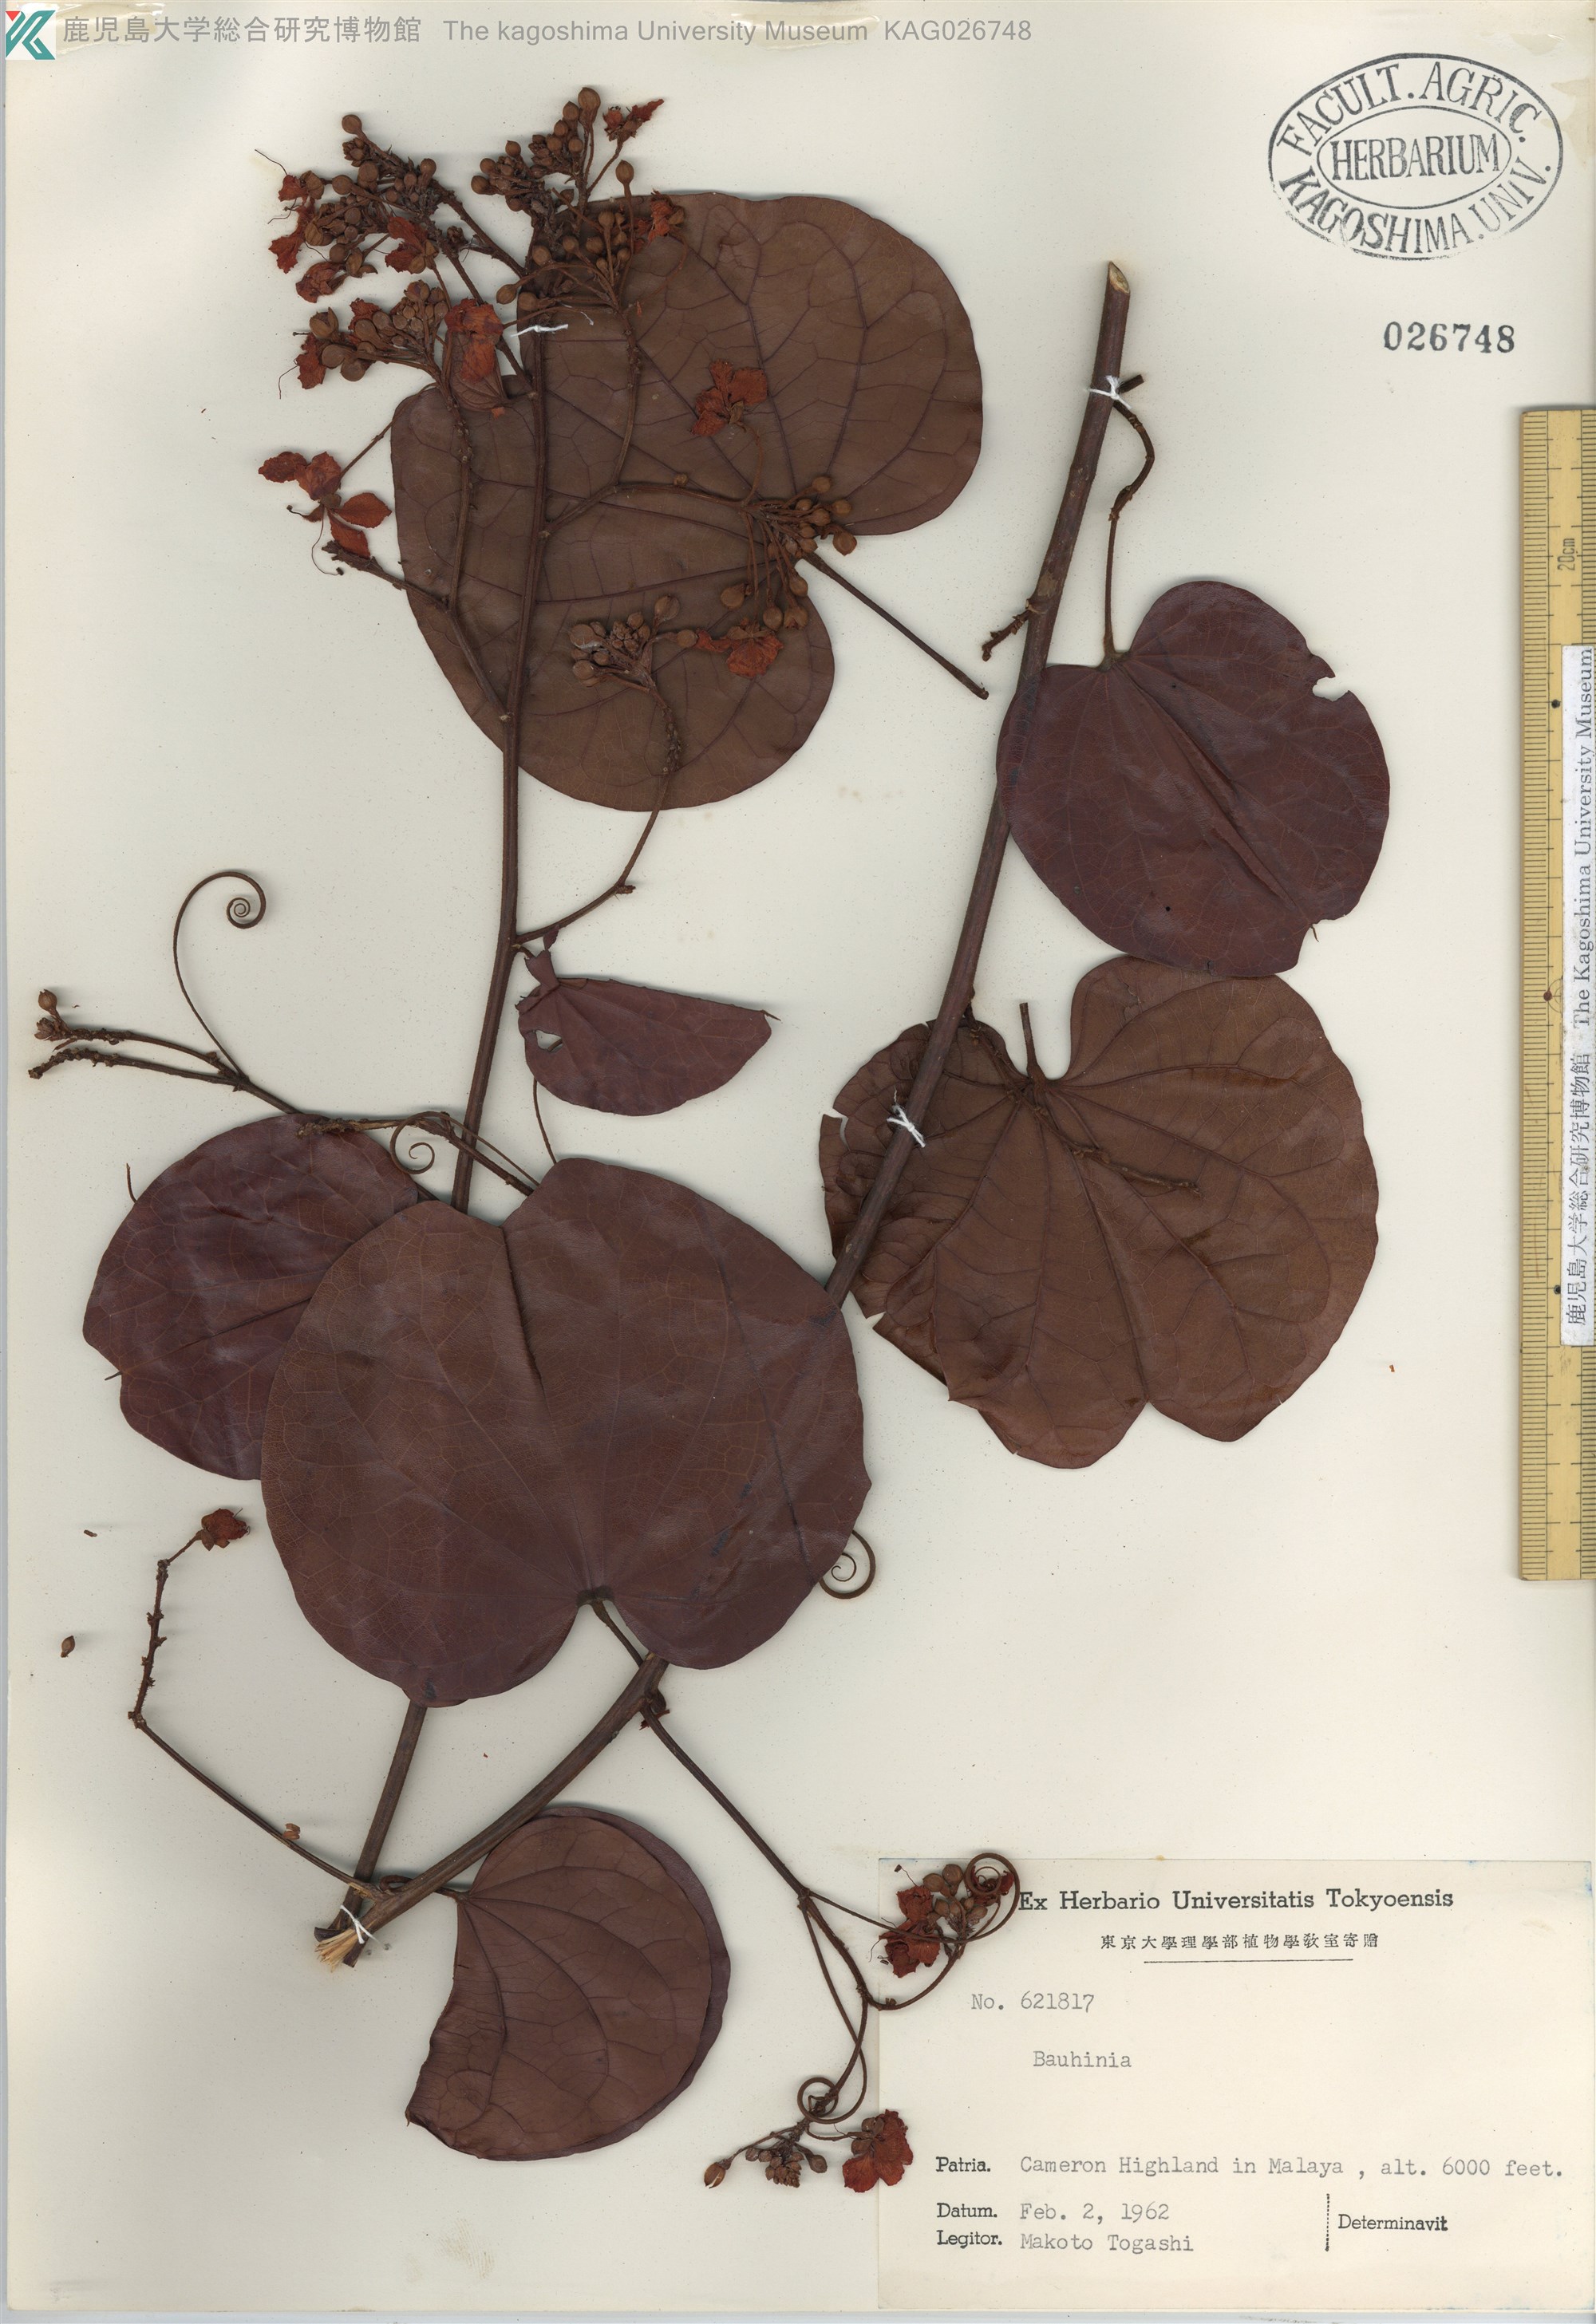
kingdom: Plantae
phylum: Tracheophyta
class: Magnoliopsida
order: Fabales
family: Fabaceae
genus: Bauhinia
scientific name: Bauhinia
